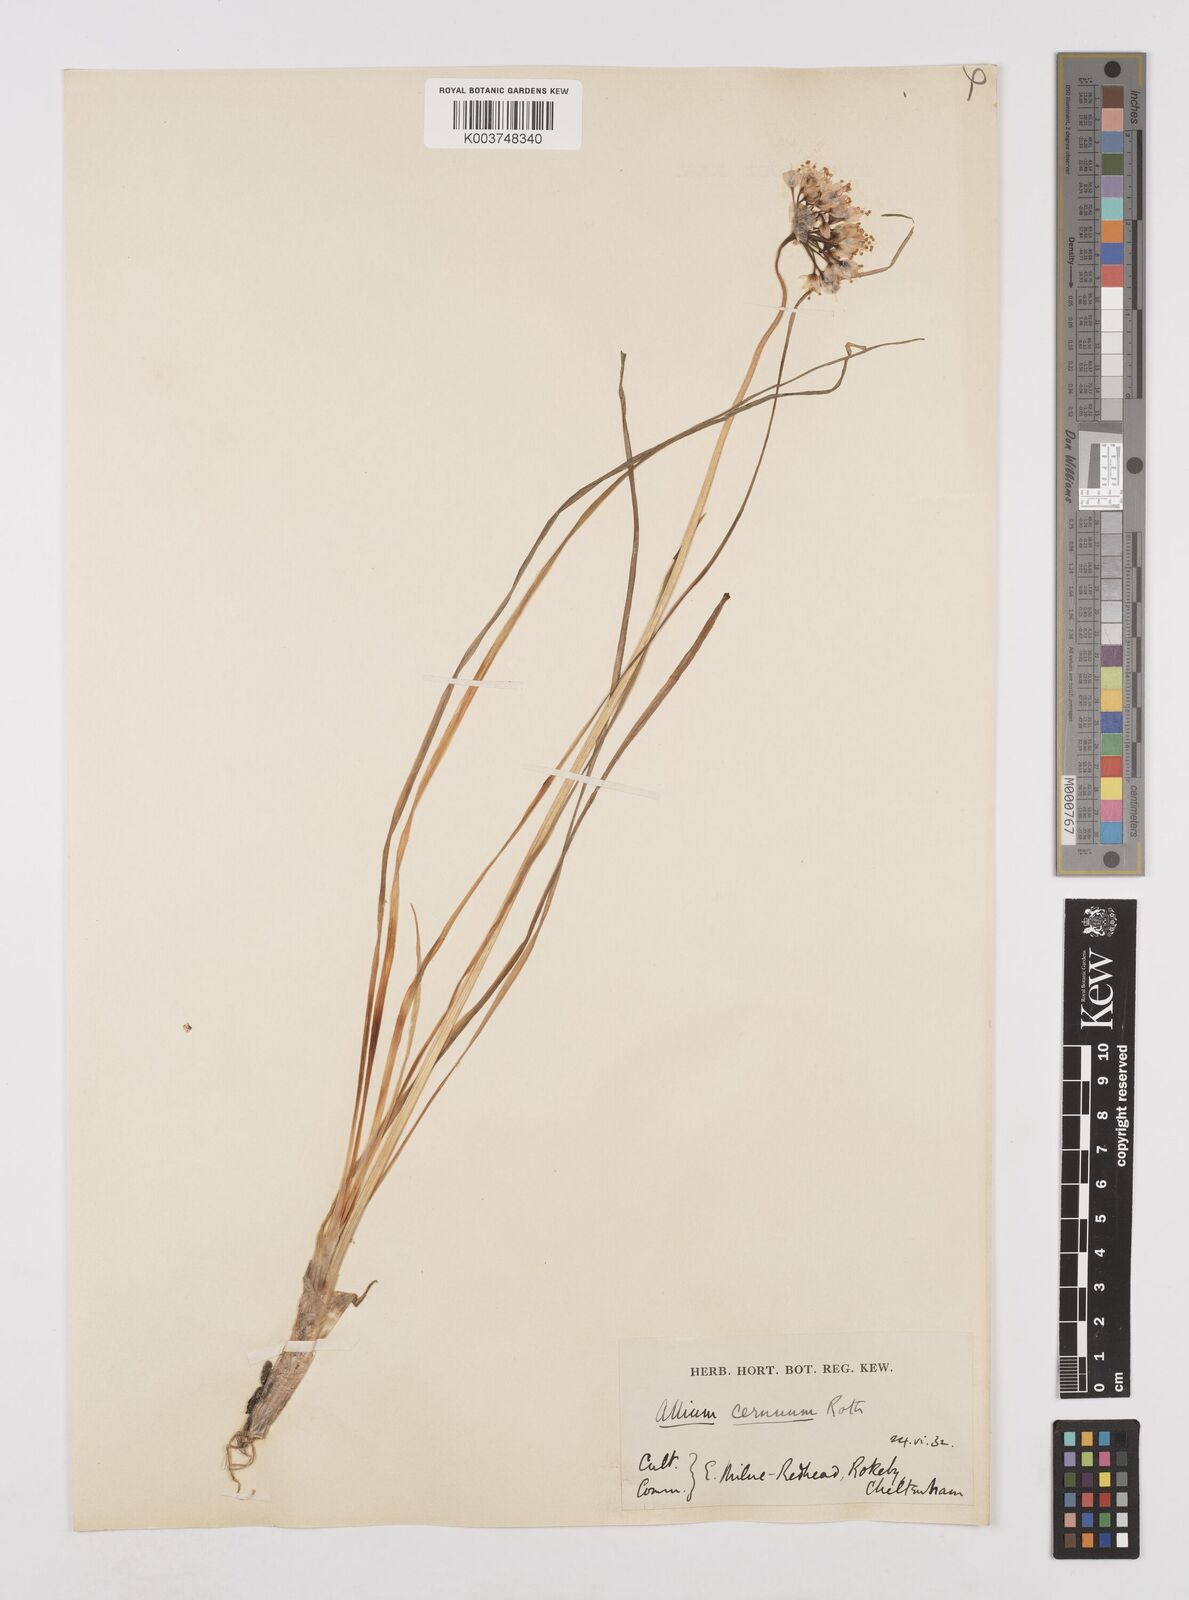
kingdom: Plantae
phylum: Tracheophyta
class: Liliopsida
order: Asparagales
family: Amaryllidaceae
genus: Allium
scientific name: Allium cernuum
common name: Nodding onion
